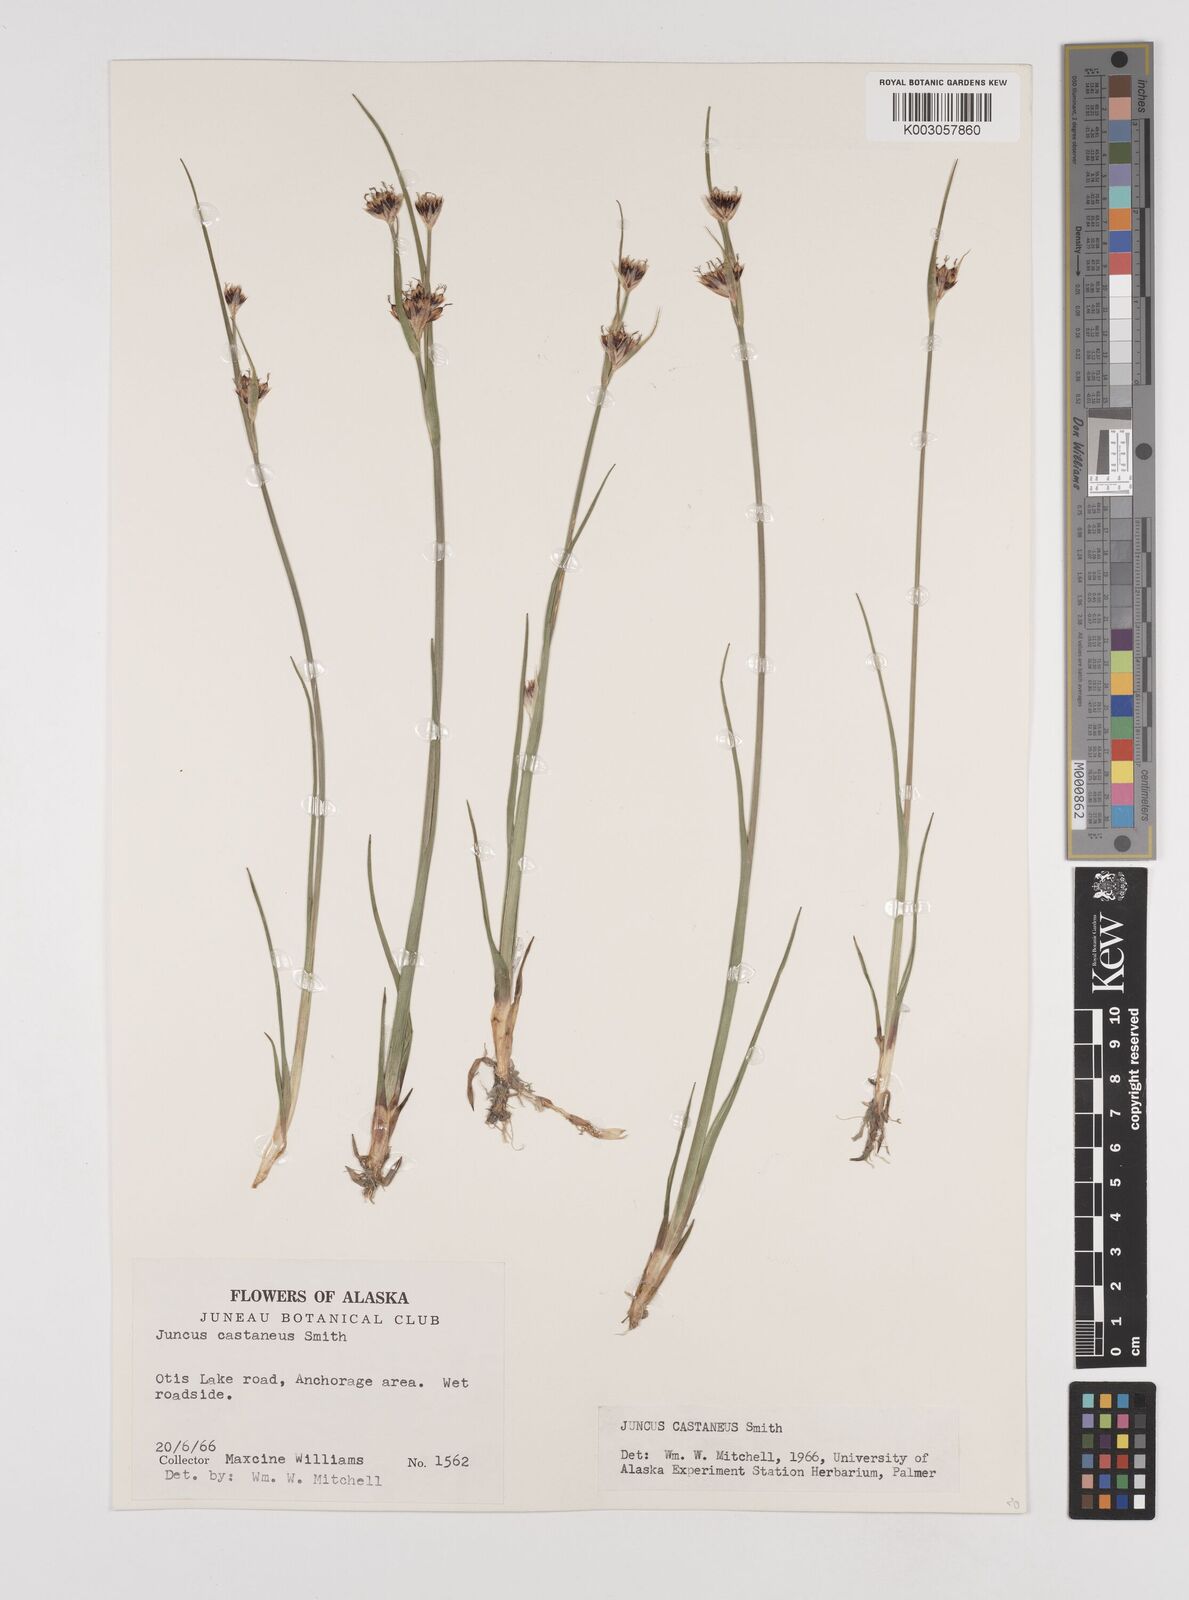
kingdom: Plantae
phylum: Tracheophyta
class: Liliopsida
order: Poales
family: Juncaceae
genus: Juncus
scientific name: Juncus castaneus
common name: Chestnut rush
